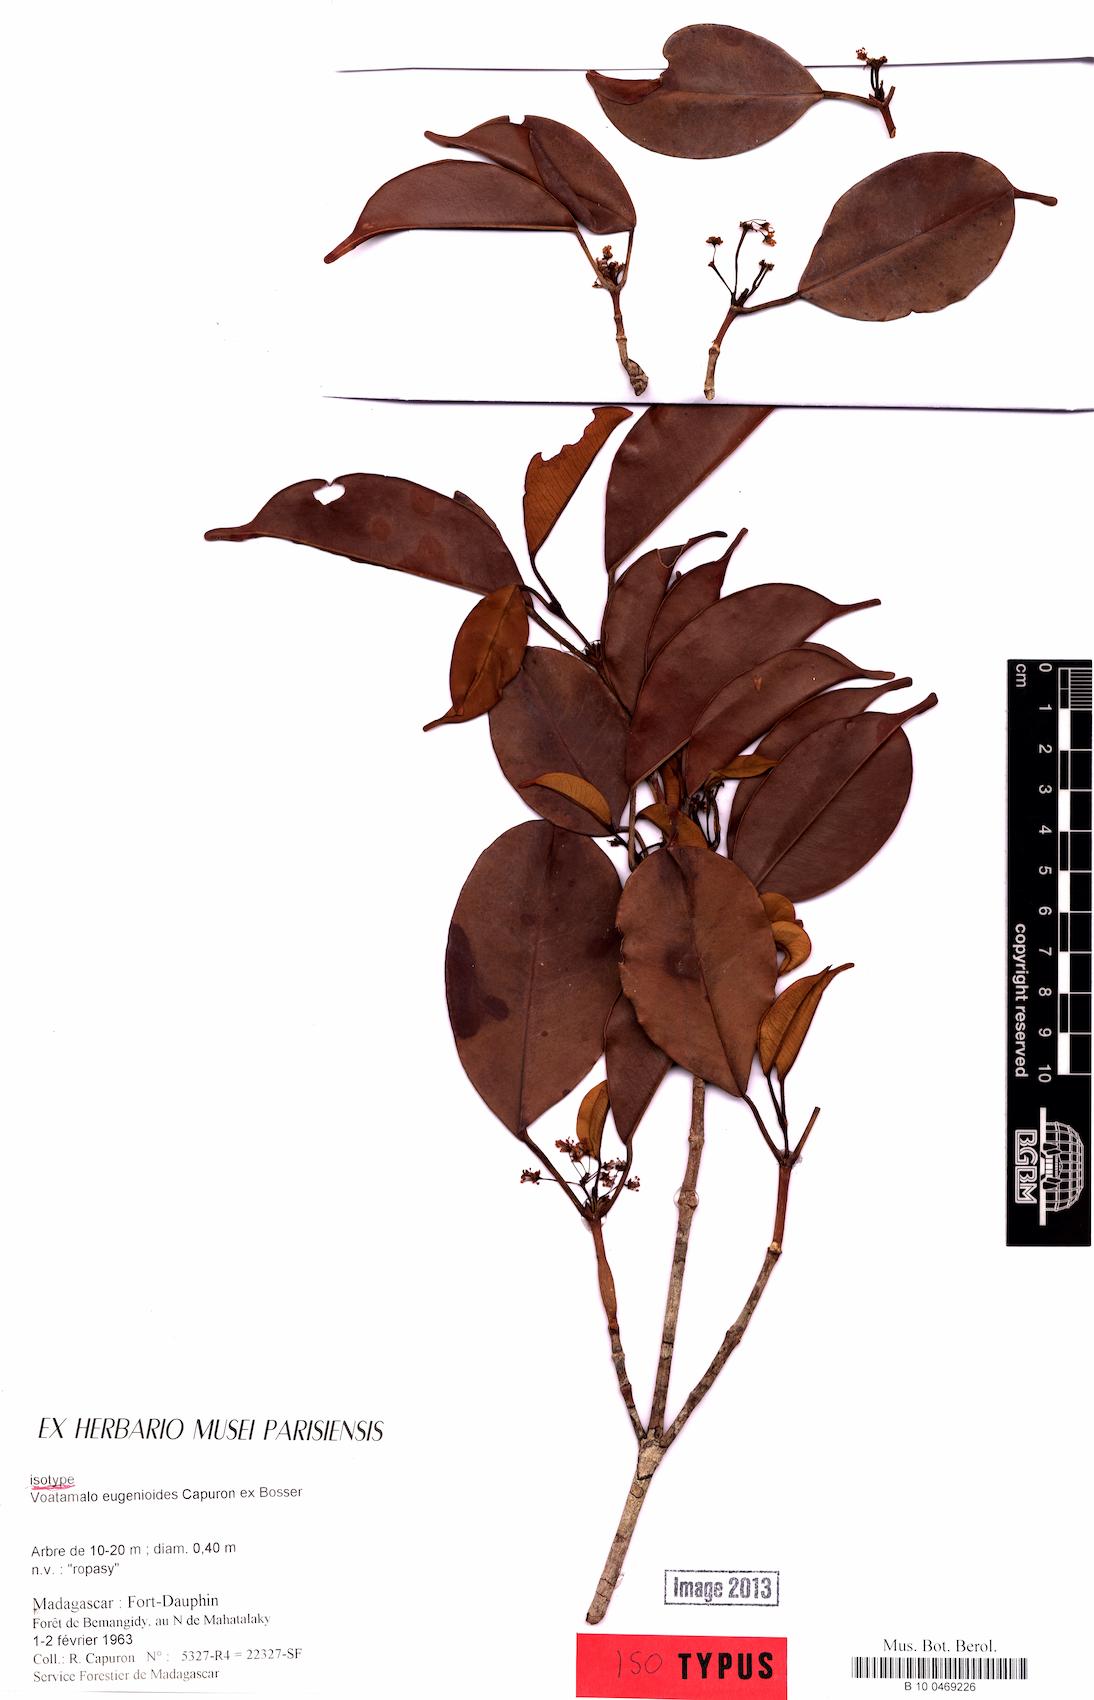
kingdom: Plantae
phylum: Tracheophyta
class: Magnoliopsida
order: Malpighiales
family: Picrodendraceae
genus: Voatamalo
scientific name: Voatamalo eugenioides
